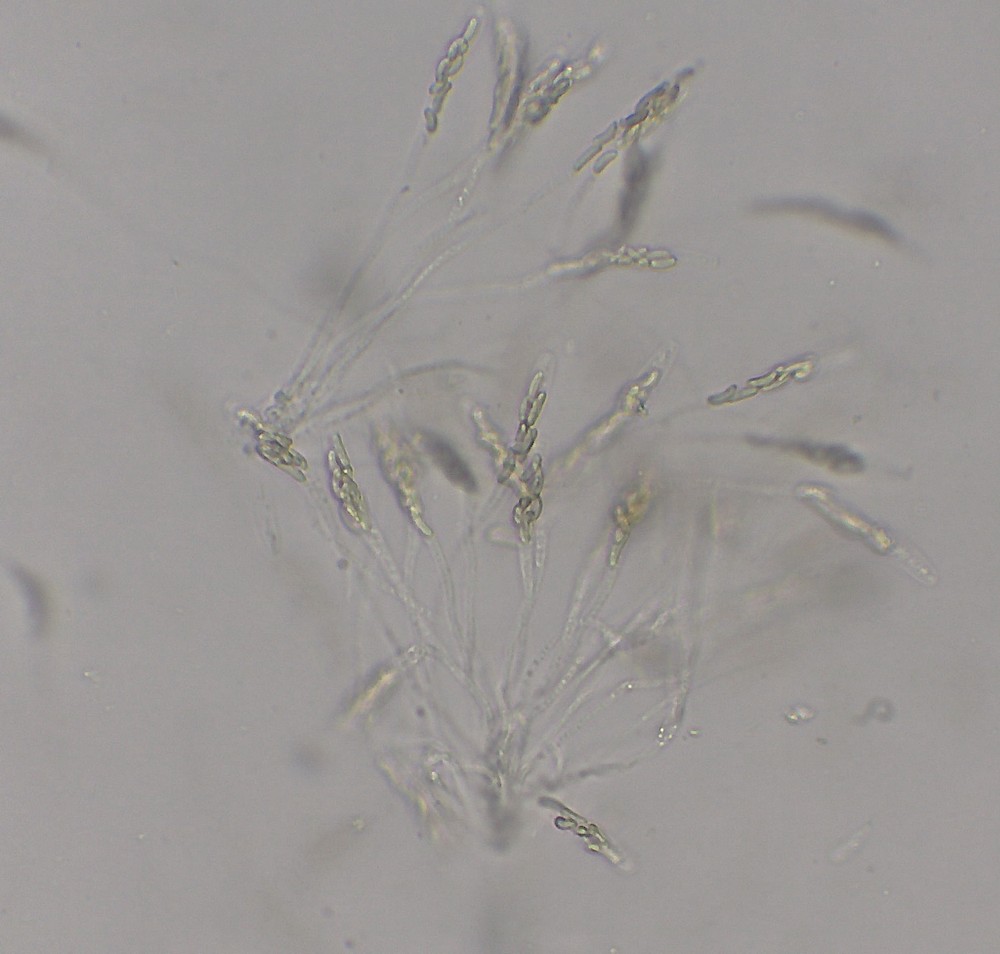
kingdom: Fungi
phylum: Ascomycota
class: Sordariomycetes
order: Xylariales
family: Diatrypaceae
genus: Eutypa
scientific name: Eutypa lata
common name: almindelig kulskorpe
